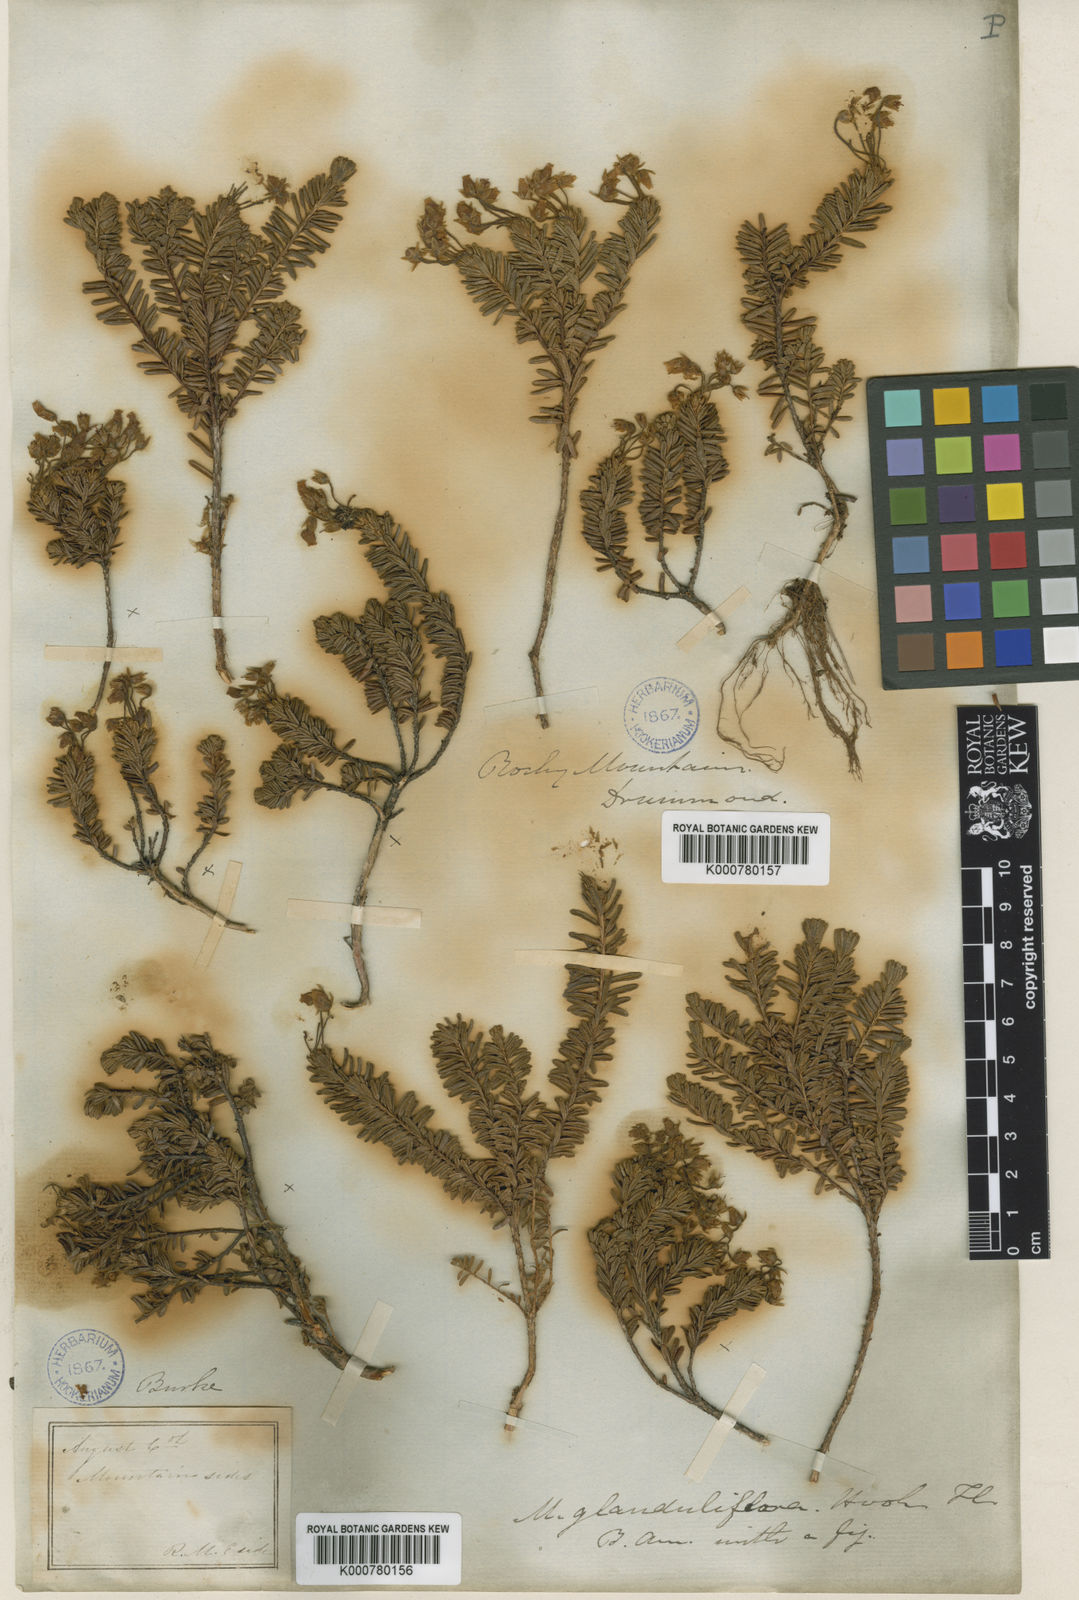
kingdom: Plantae
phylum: Tracheophyta
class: Magnoliopsida
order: Ericales
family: Ericaceae
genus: Phyllodoce
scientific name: Phyllodoce glanduliflora
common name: Cream mountain heather
